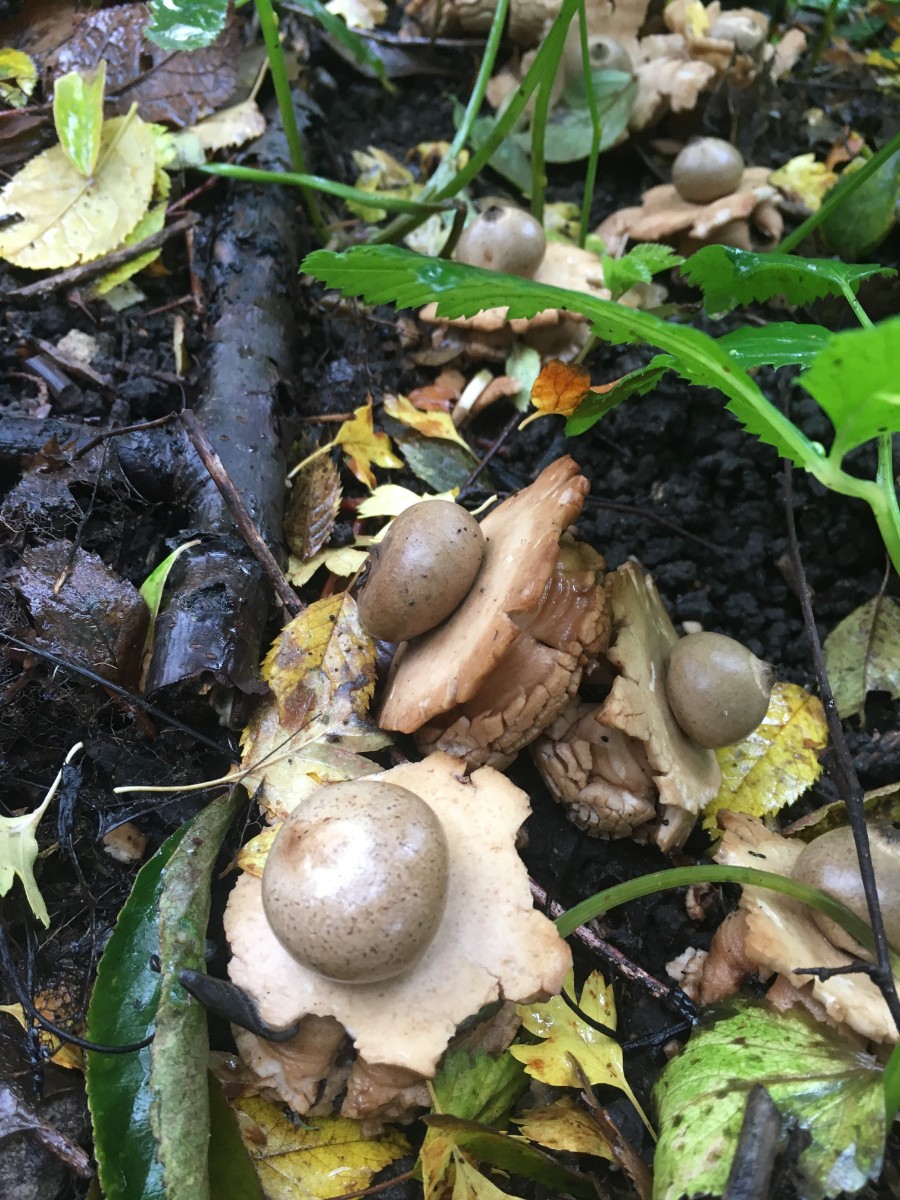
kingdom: Fungi
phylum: Basidiomycota
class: Agaricomycetes
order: Geastrales
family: Geastraceae
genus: Geastrum
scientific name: Geastrum michelianum
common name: kødet stjernebold
